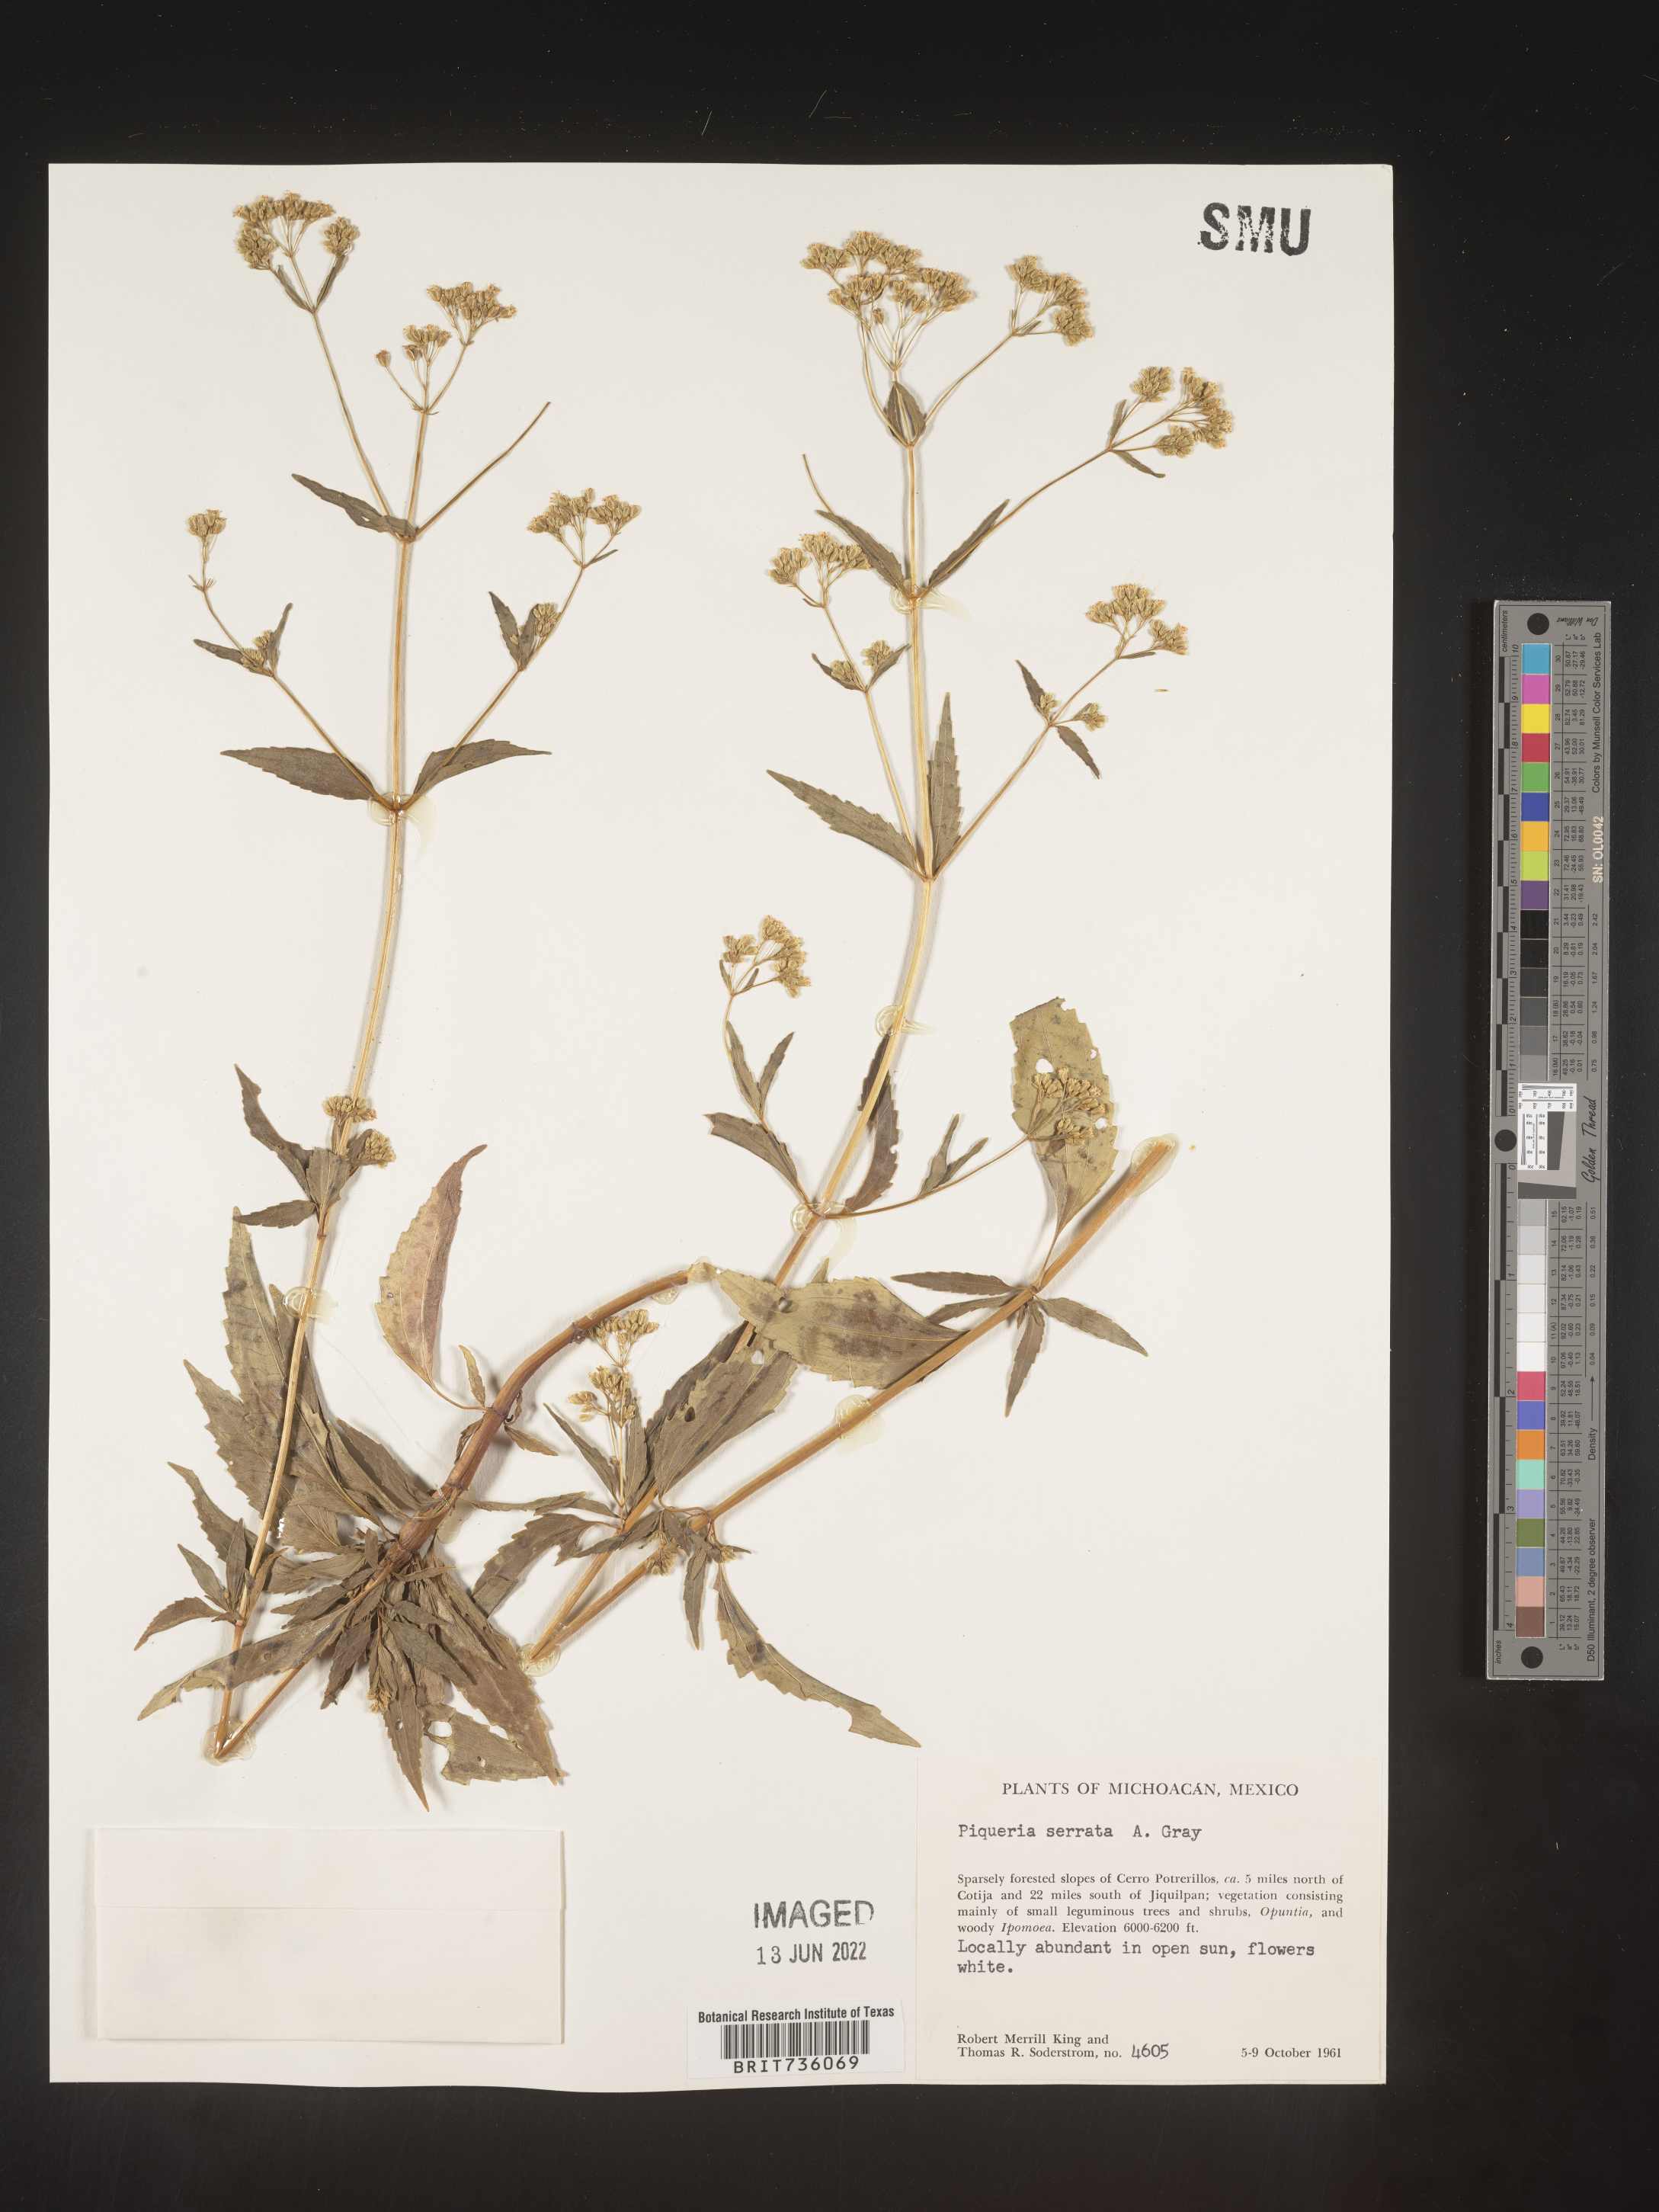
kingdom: Plantae
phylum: Tracheophyta
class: Magnoliopsida
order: Asterales
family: Asteraceae
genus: Piqueria
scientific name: Piqueria
